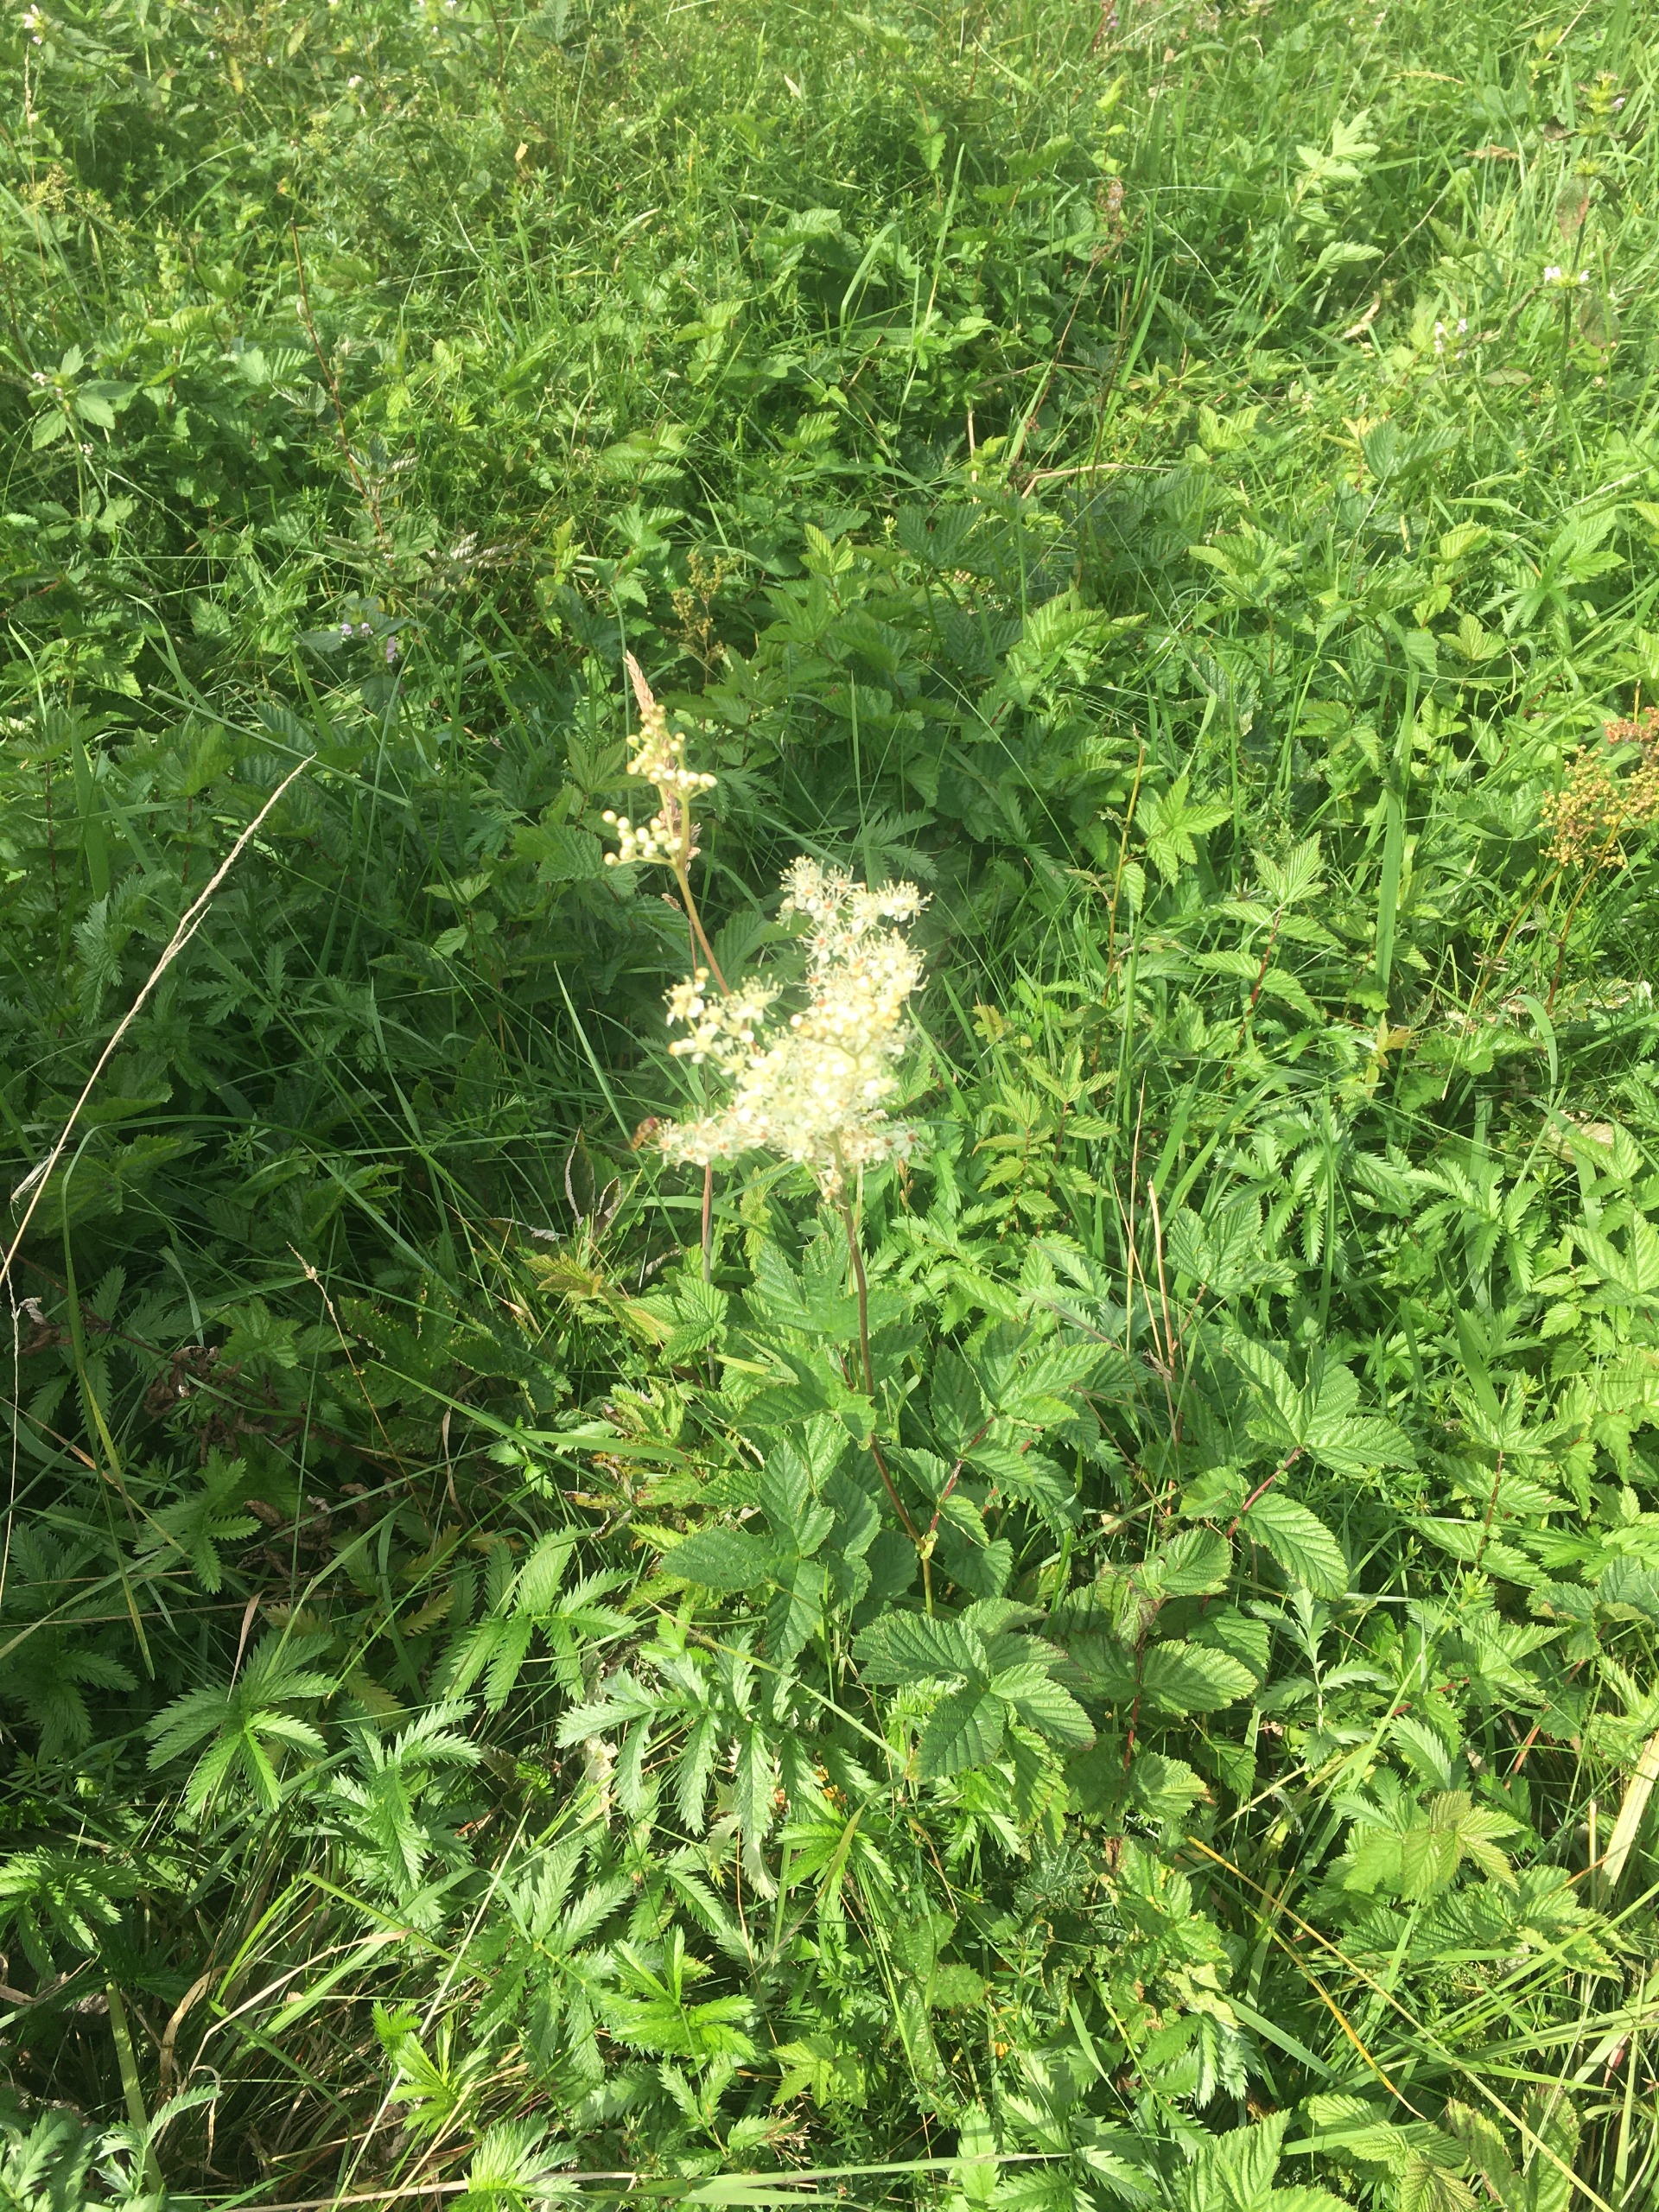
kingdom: Plantae
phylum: Tracheophyta
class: Magnoliopsida
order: Rosales
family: Rosaceae
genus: Filipendula
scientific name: Filipendula ulmaria
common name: Almindelig mjødurt
